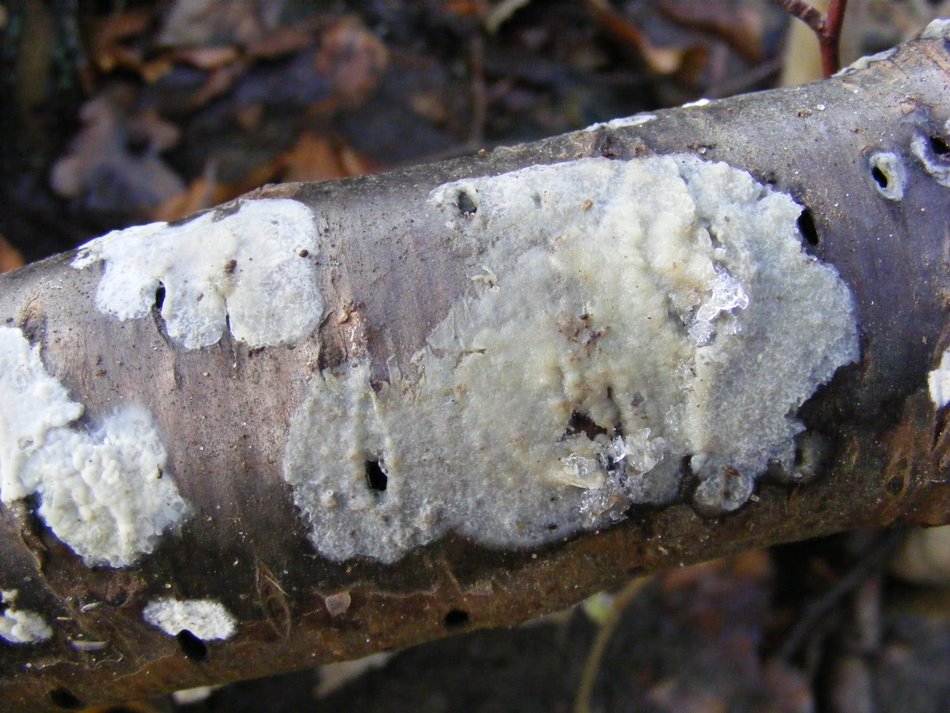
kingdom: Fungi
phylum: Basidiomycota
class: Agaricomycetes
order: Agaricales
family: Radulomycetaceae
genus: Radulomyces
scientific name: Radulomyces confluens
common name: glat naftalinskind
